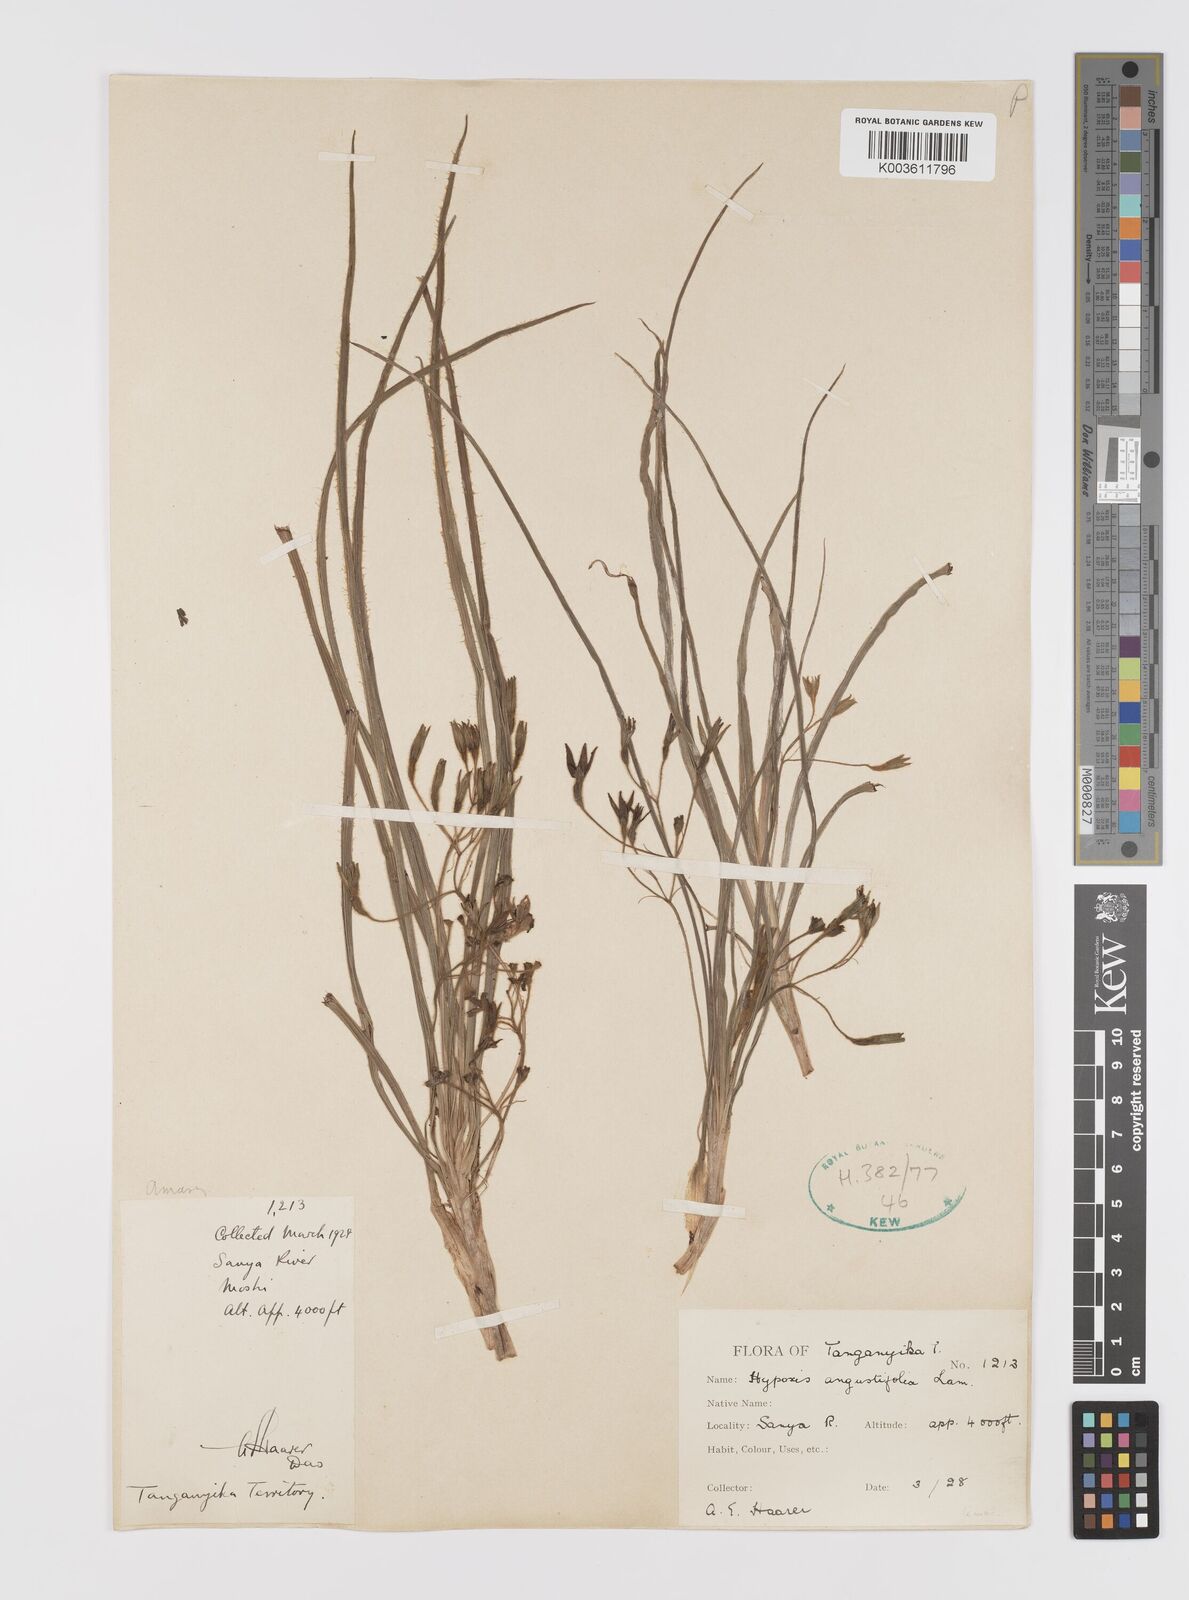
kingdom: Plantae
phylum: Tracheophyta
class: Liliopsida
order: Asparagales
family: Hypoxidaceae
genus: Hypoxis
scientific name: Hypoxis angustifolia
